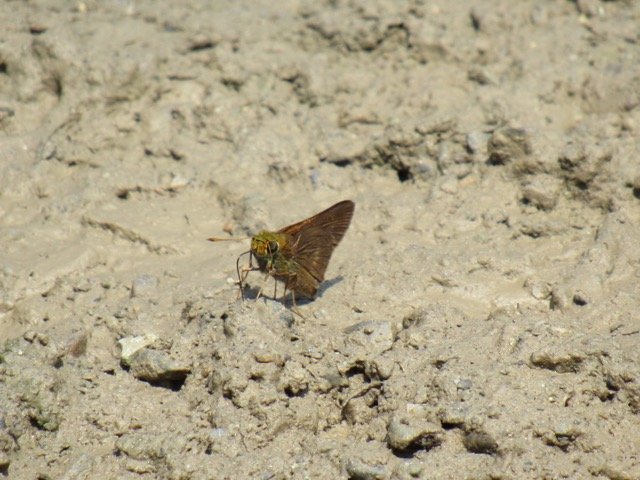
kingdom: Animalia
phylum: Arthropoda
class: Insecta
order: Lepidoptera
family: Hesperiidae
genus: Polites
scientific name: Polites egeremet
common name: Northern Broken-Dash
